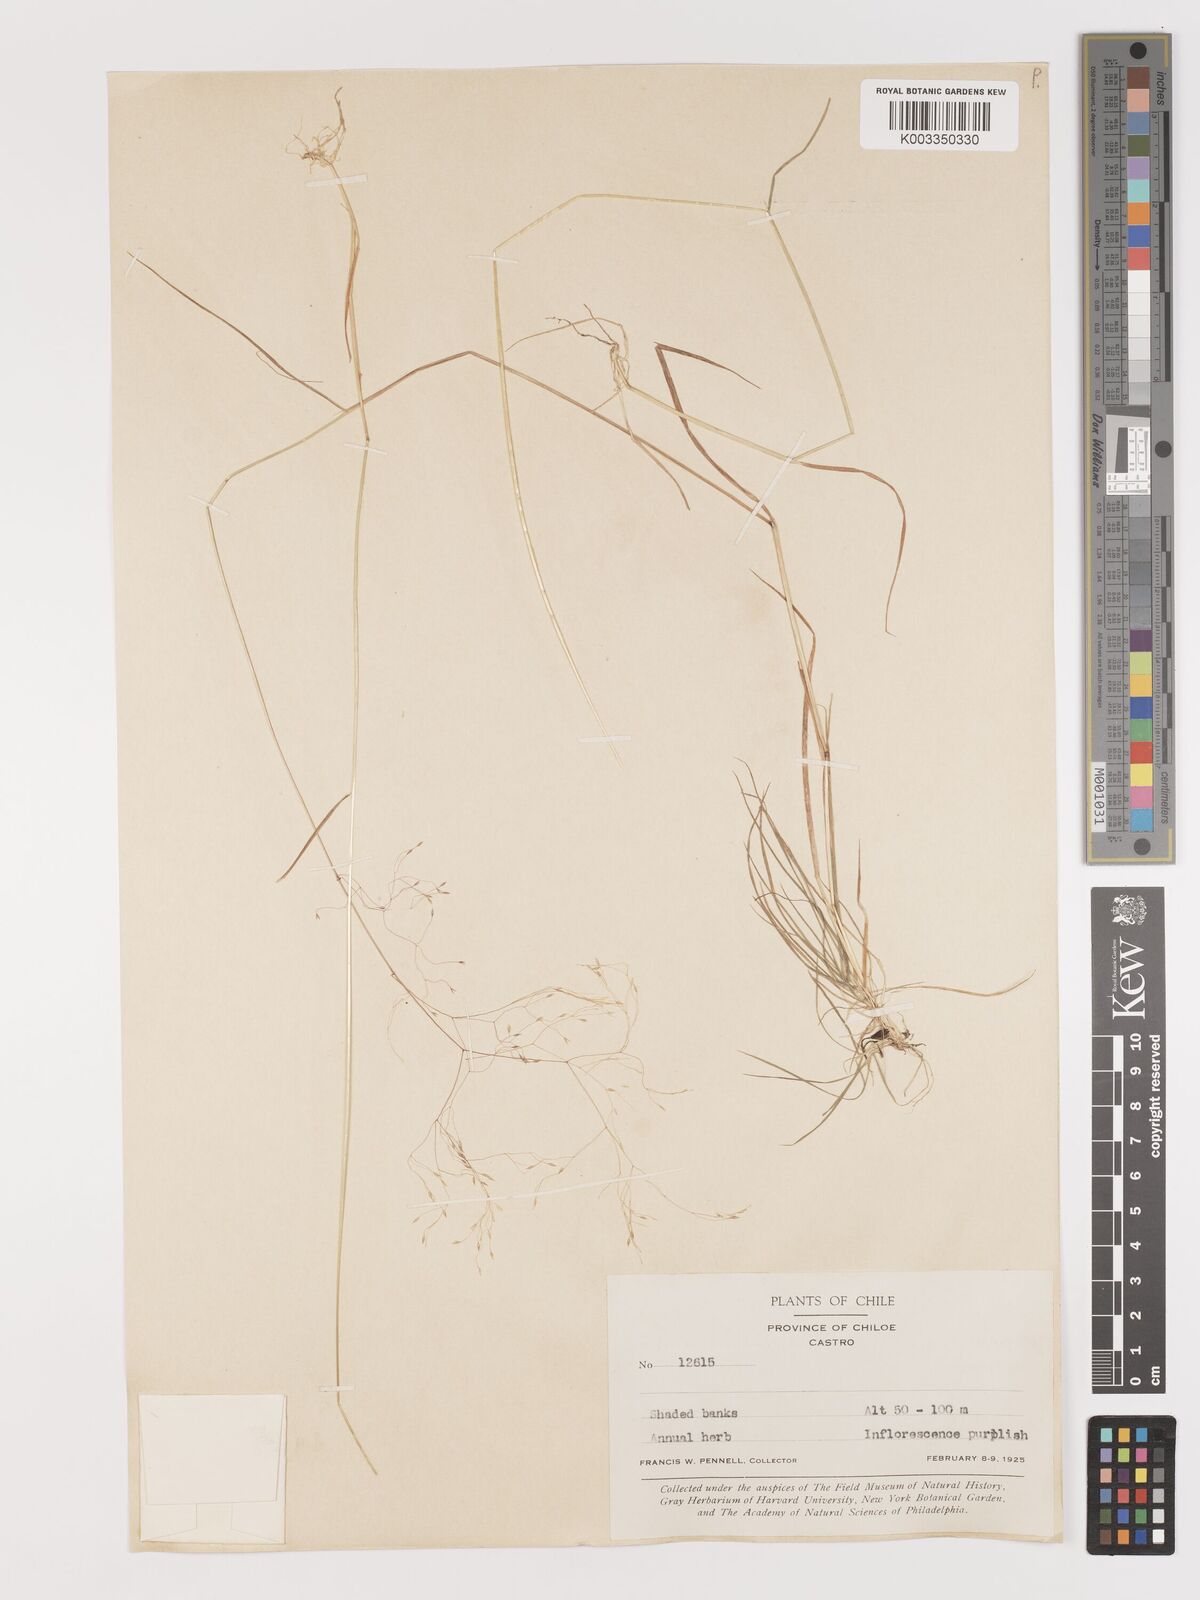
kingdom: Plantae
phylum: Tracheophyta
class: Liliopsida
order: Poales
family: Poaceae
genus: Agrostis
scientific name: Agrostis
